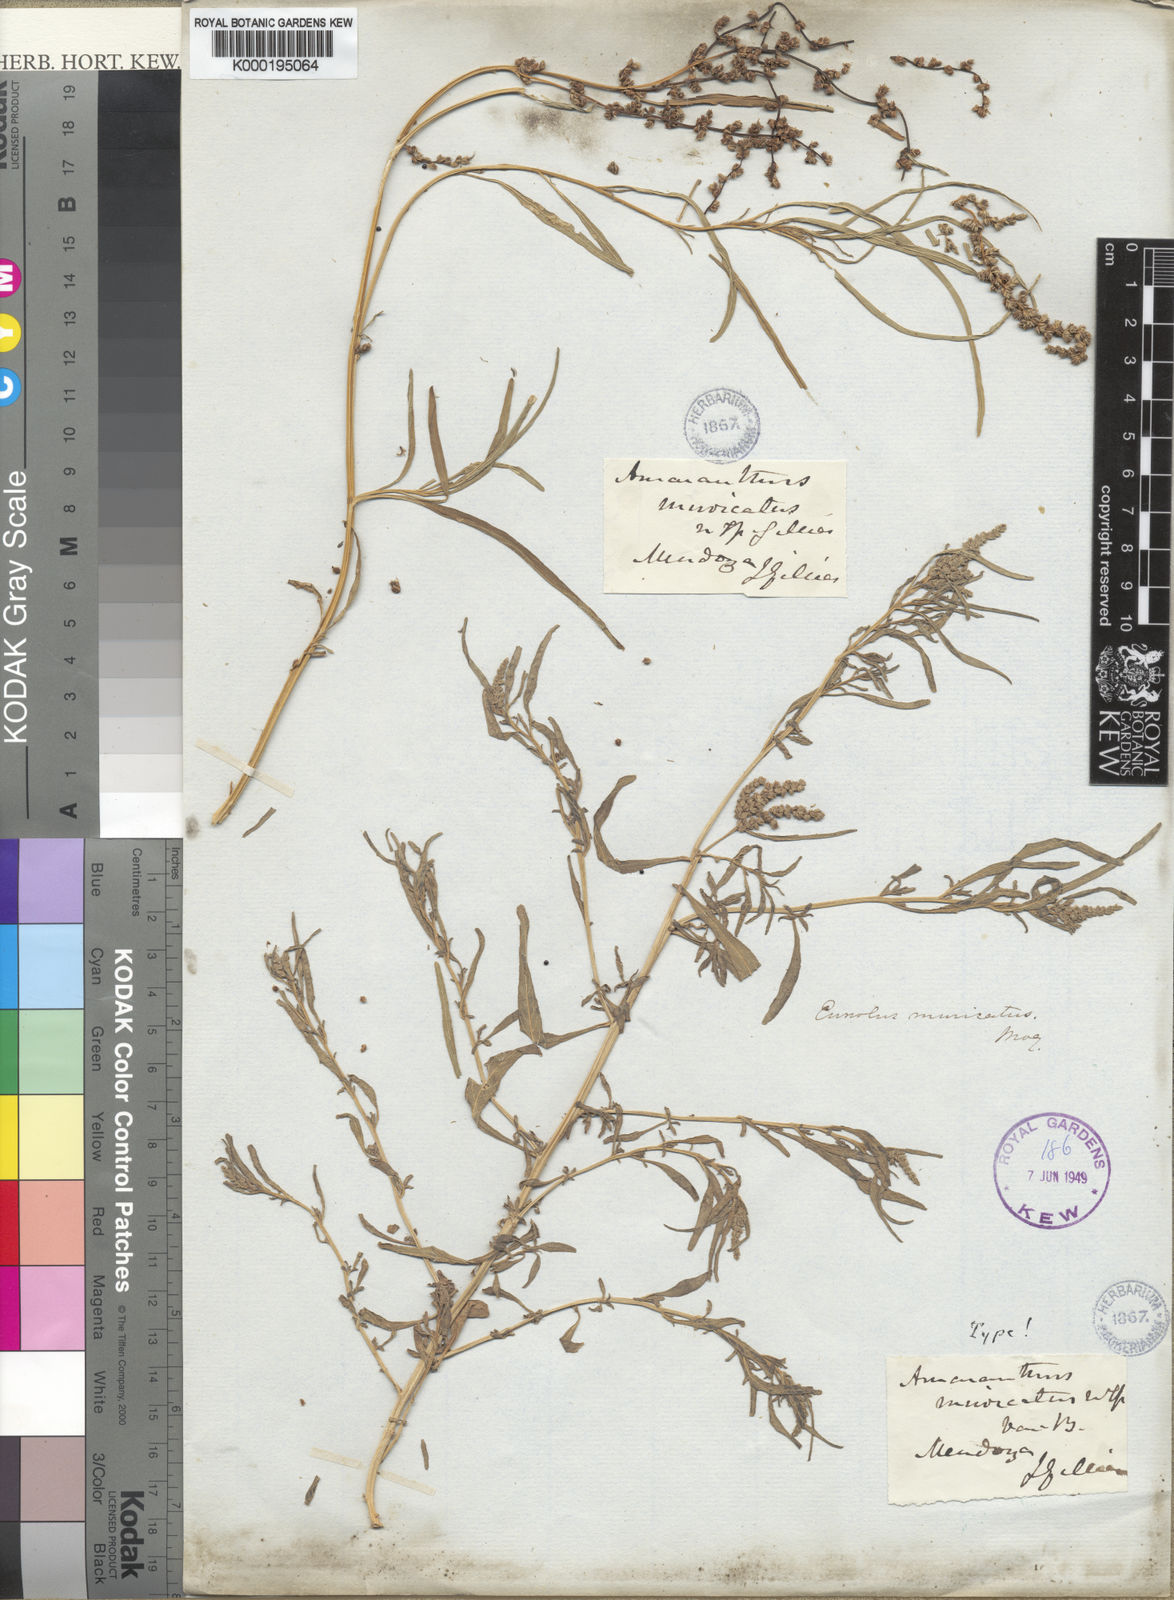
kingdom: Plantae
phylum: Tracheophyta
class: Magnoliopsida
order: Caryophyllales
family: Amaranthaceae
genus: Amaranthus
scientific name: Amaranthus
